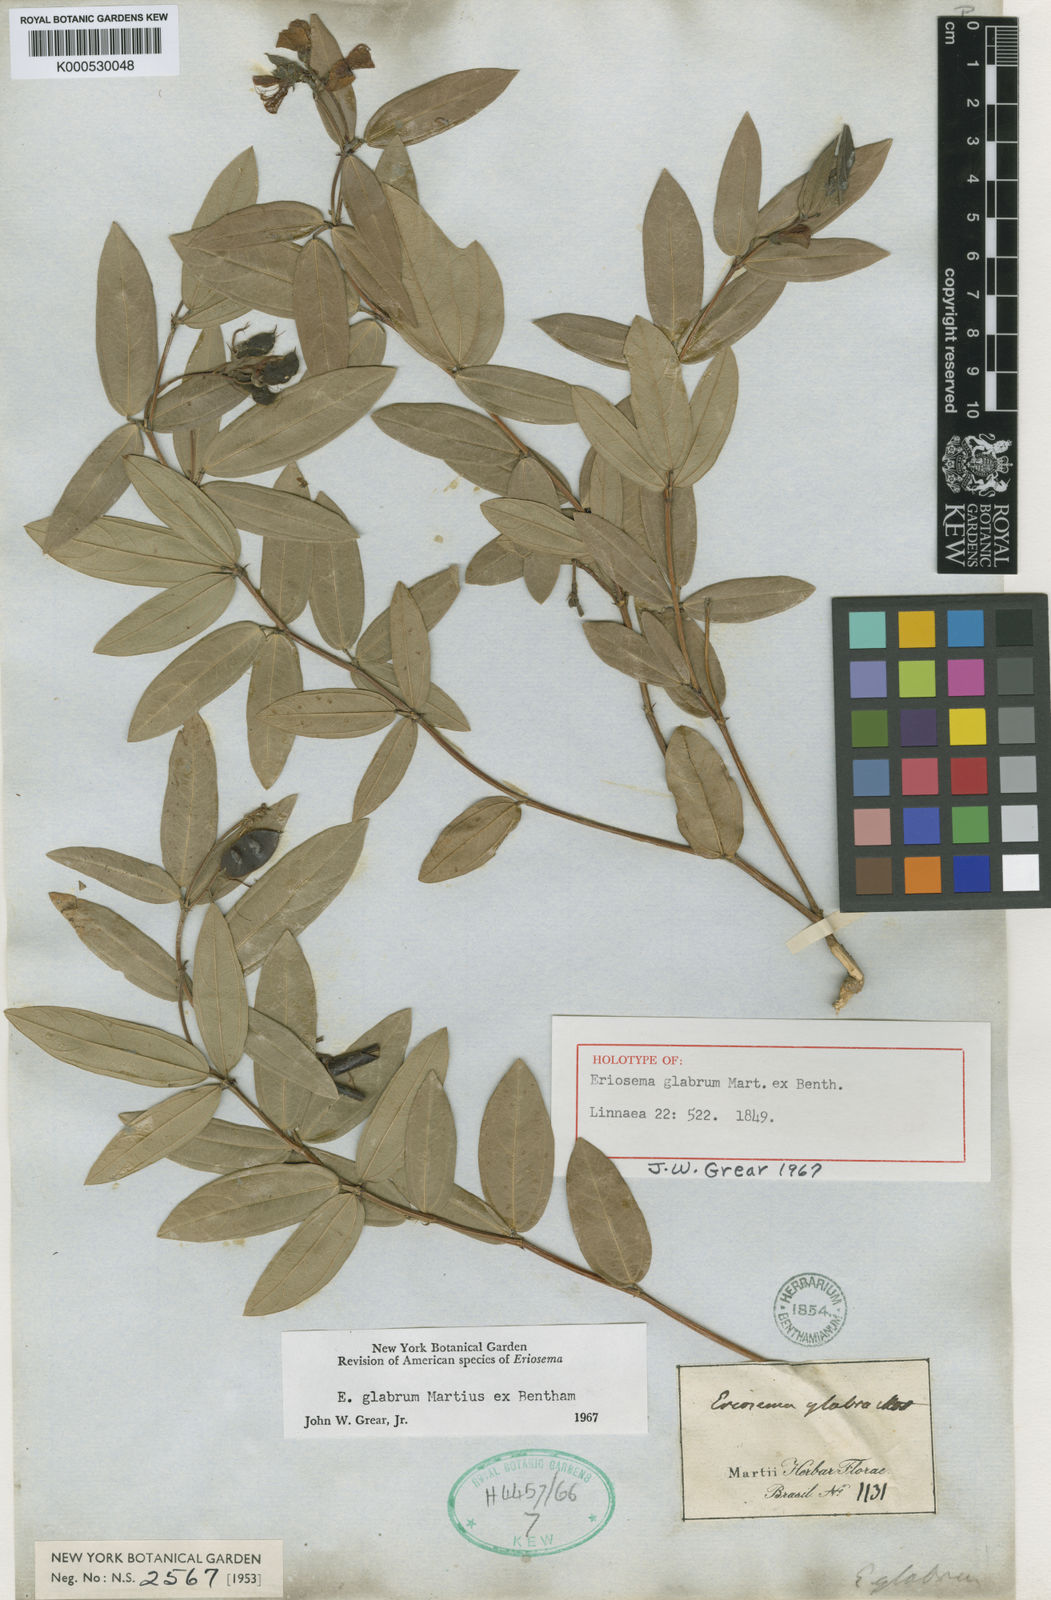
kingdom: Plantae
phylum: Tracheophyta
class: Magnoliopsida
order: Fabales
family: Fabaceae
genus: Eriosema
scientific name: Eriosema glabrum
